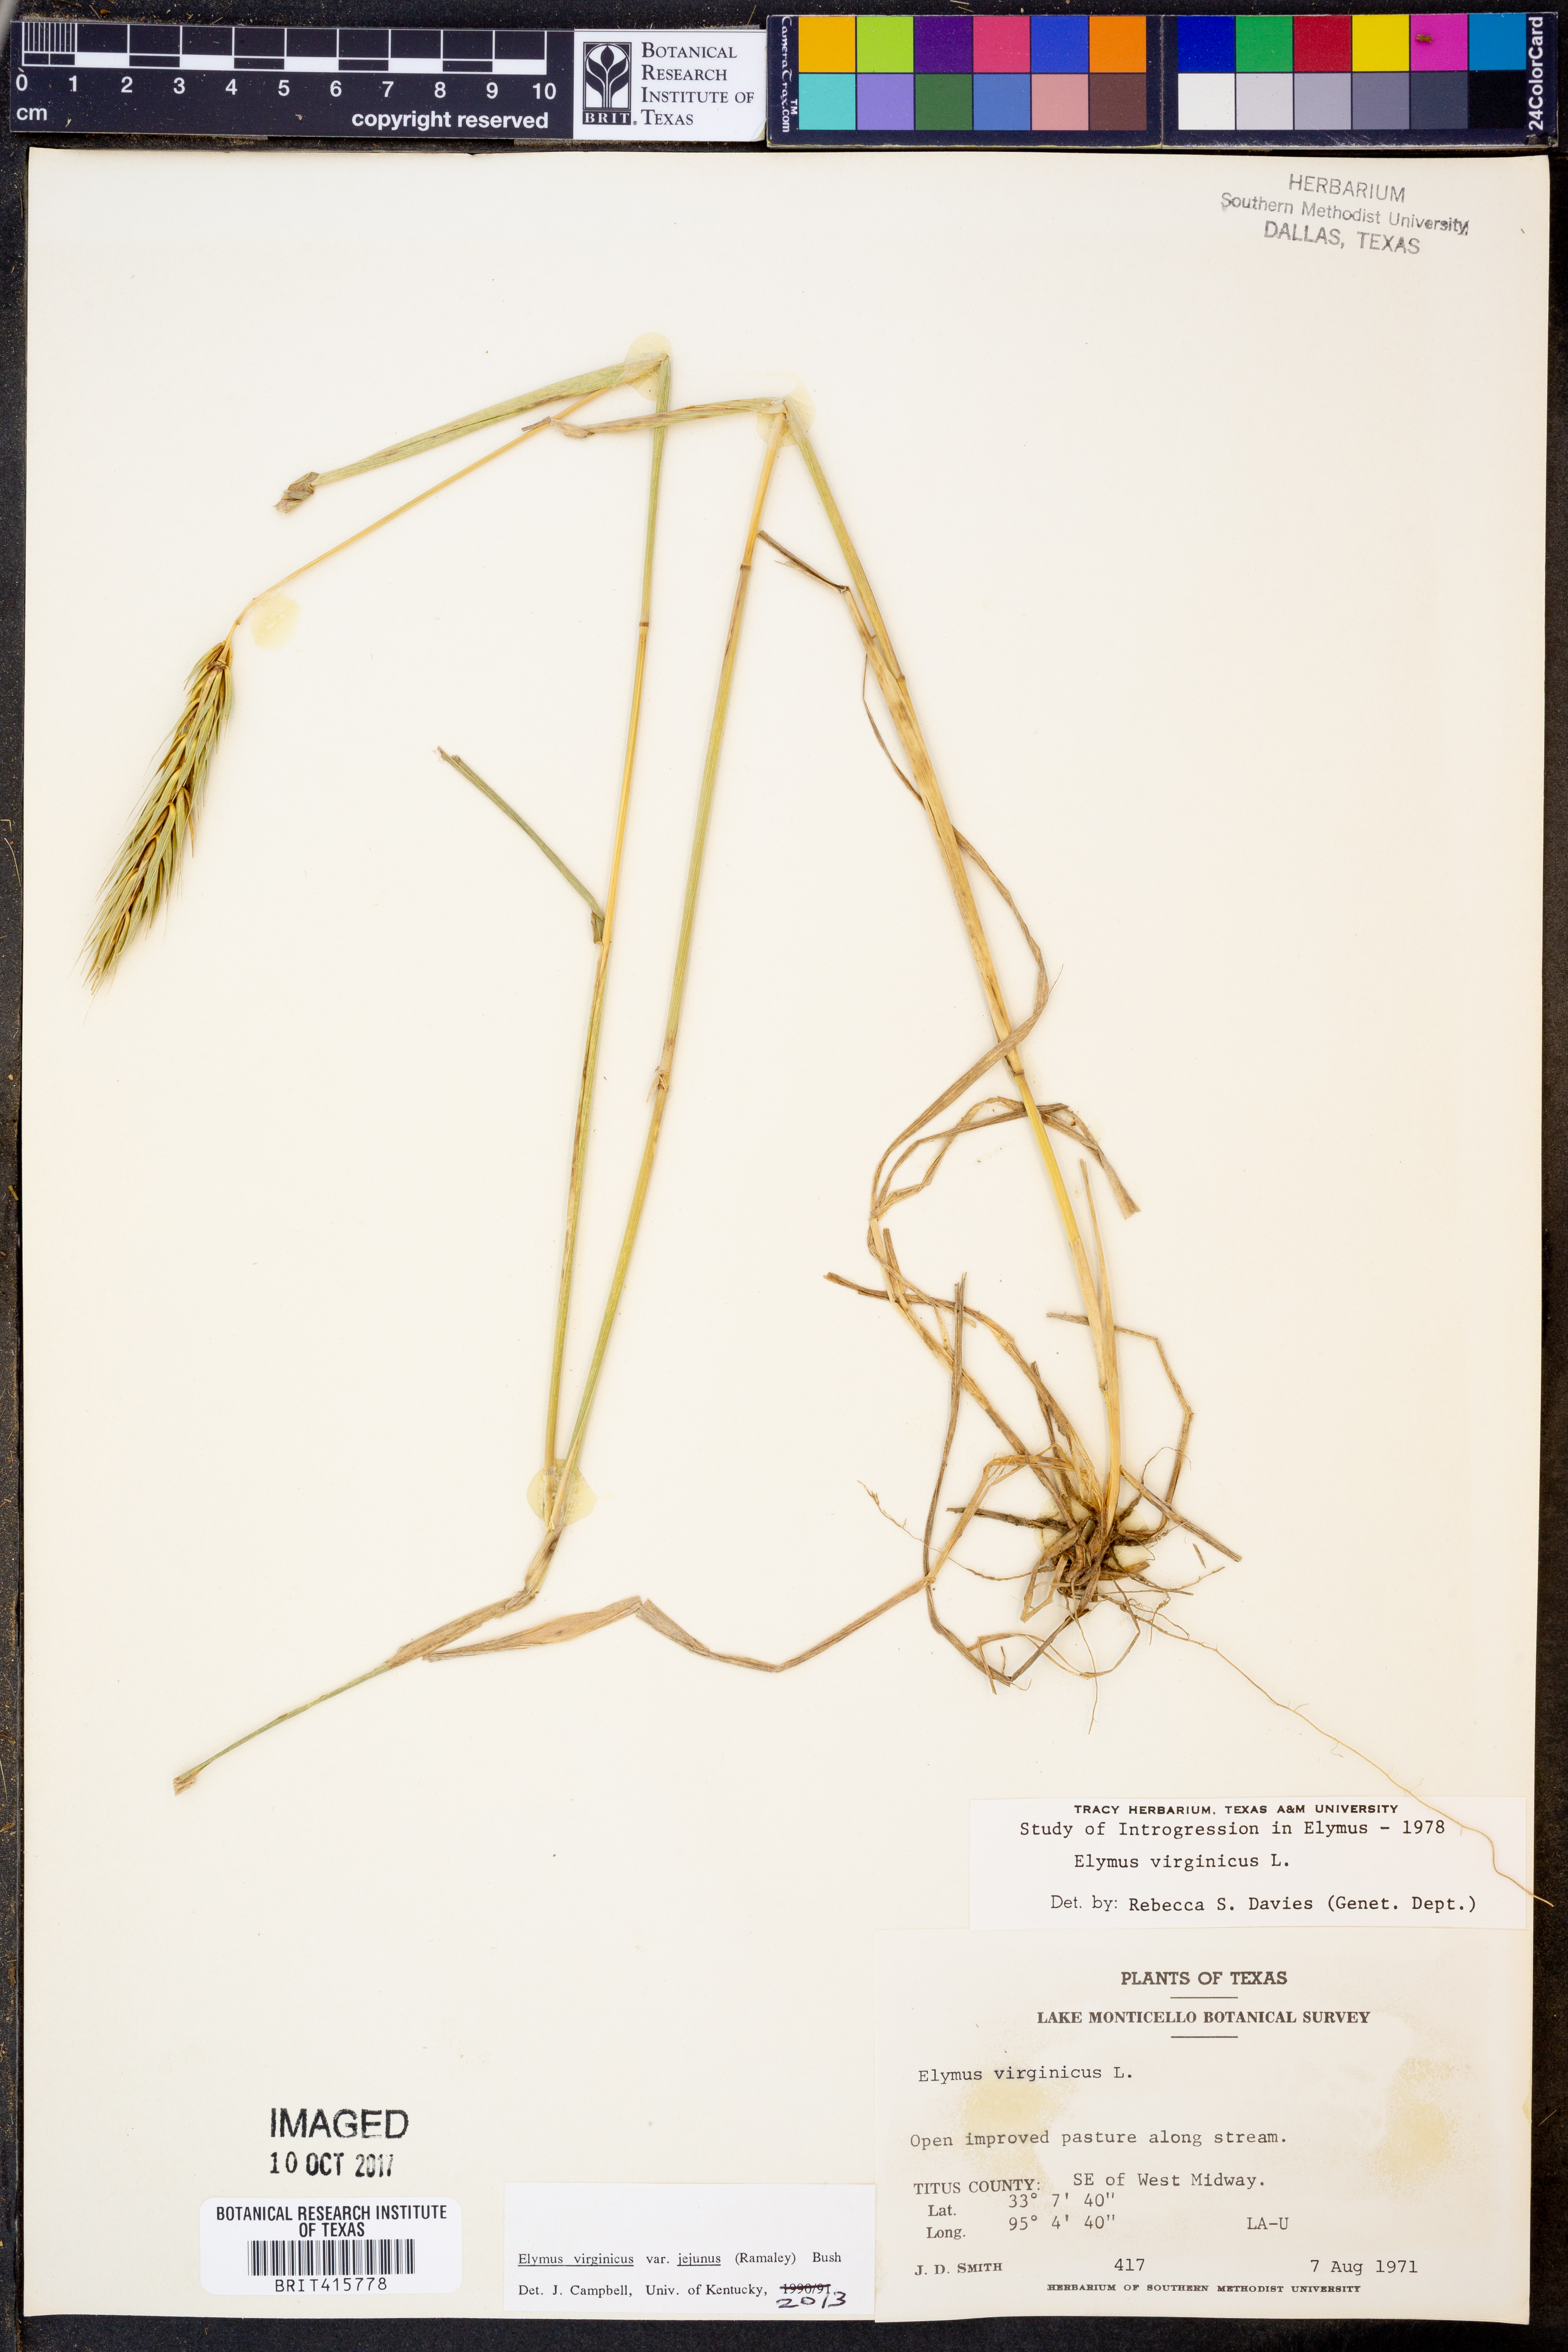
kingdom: Plantae
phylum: Tracheophyta
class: Liliopsida
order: Poales
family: Poaceae
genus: Elymus
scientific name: Elymus virginicus
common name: Common eastern wildrye
